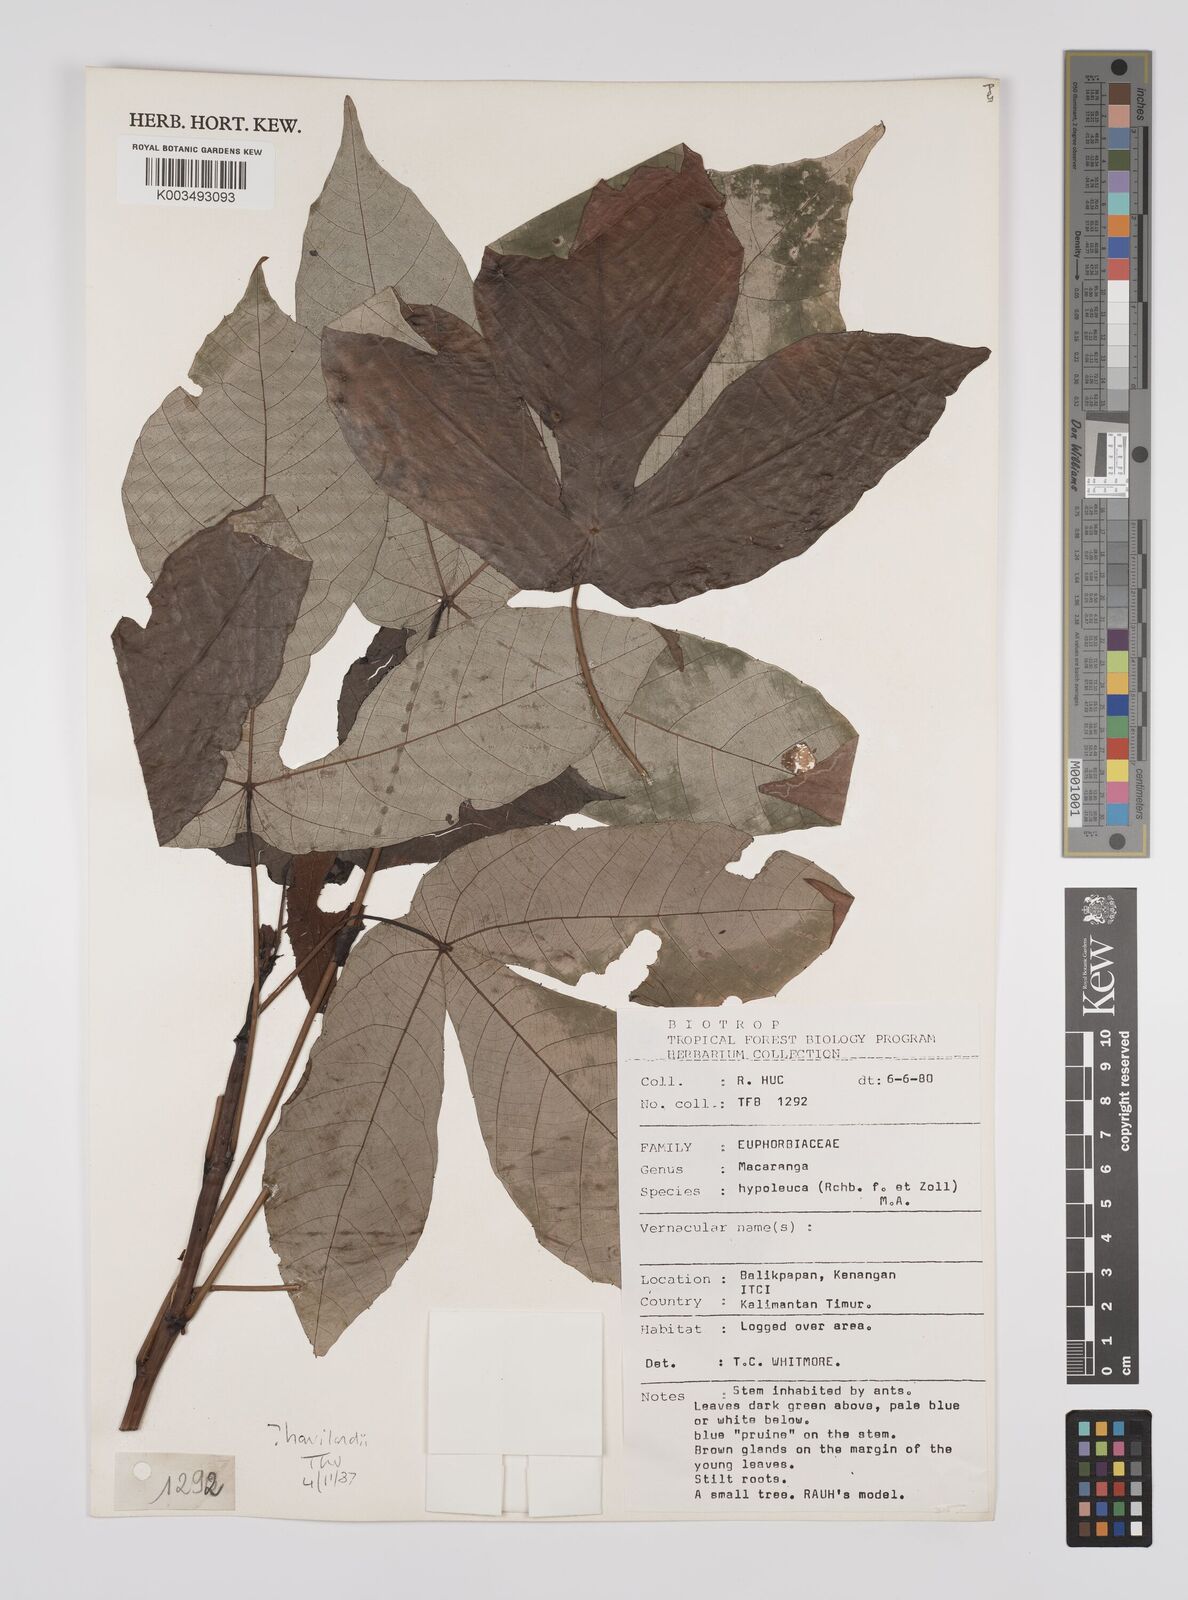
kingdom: Plantae
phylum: Tracheophyta
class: Magnoliopsida
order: Malpighiales
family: Euphorbiaceae
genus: Macaranga
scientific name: Macaranga hypoleuca
